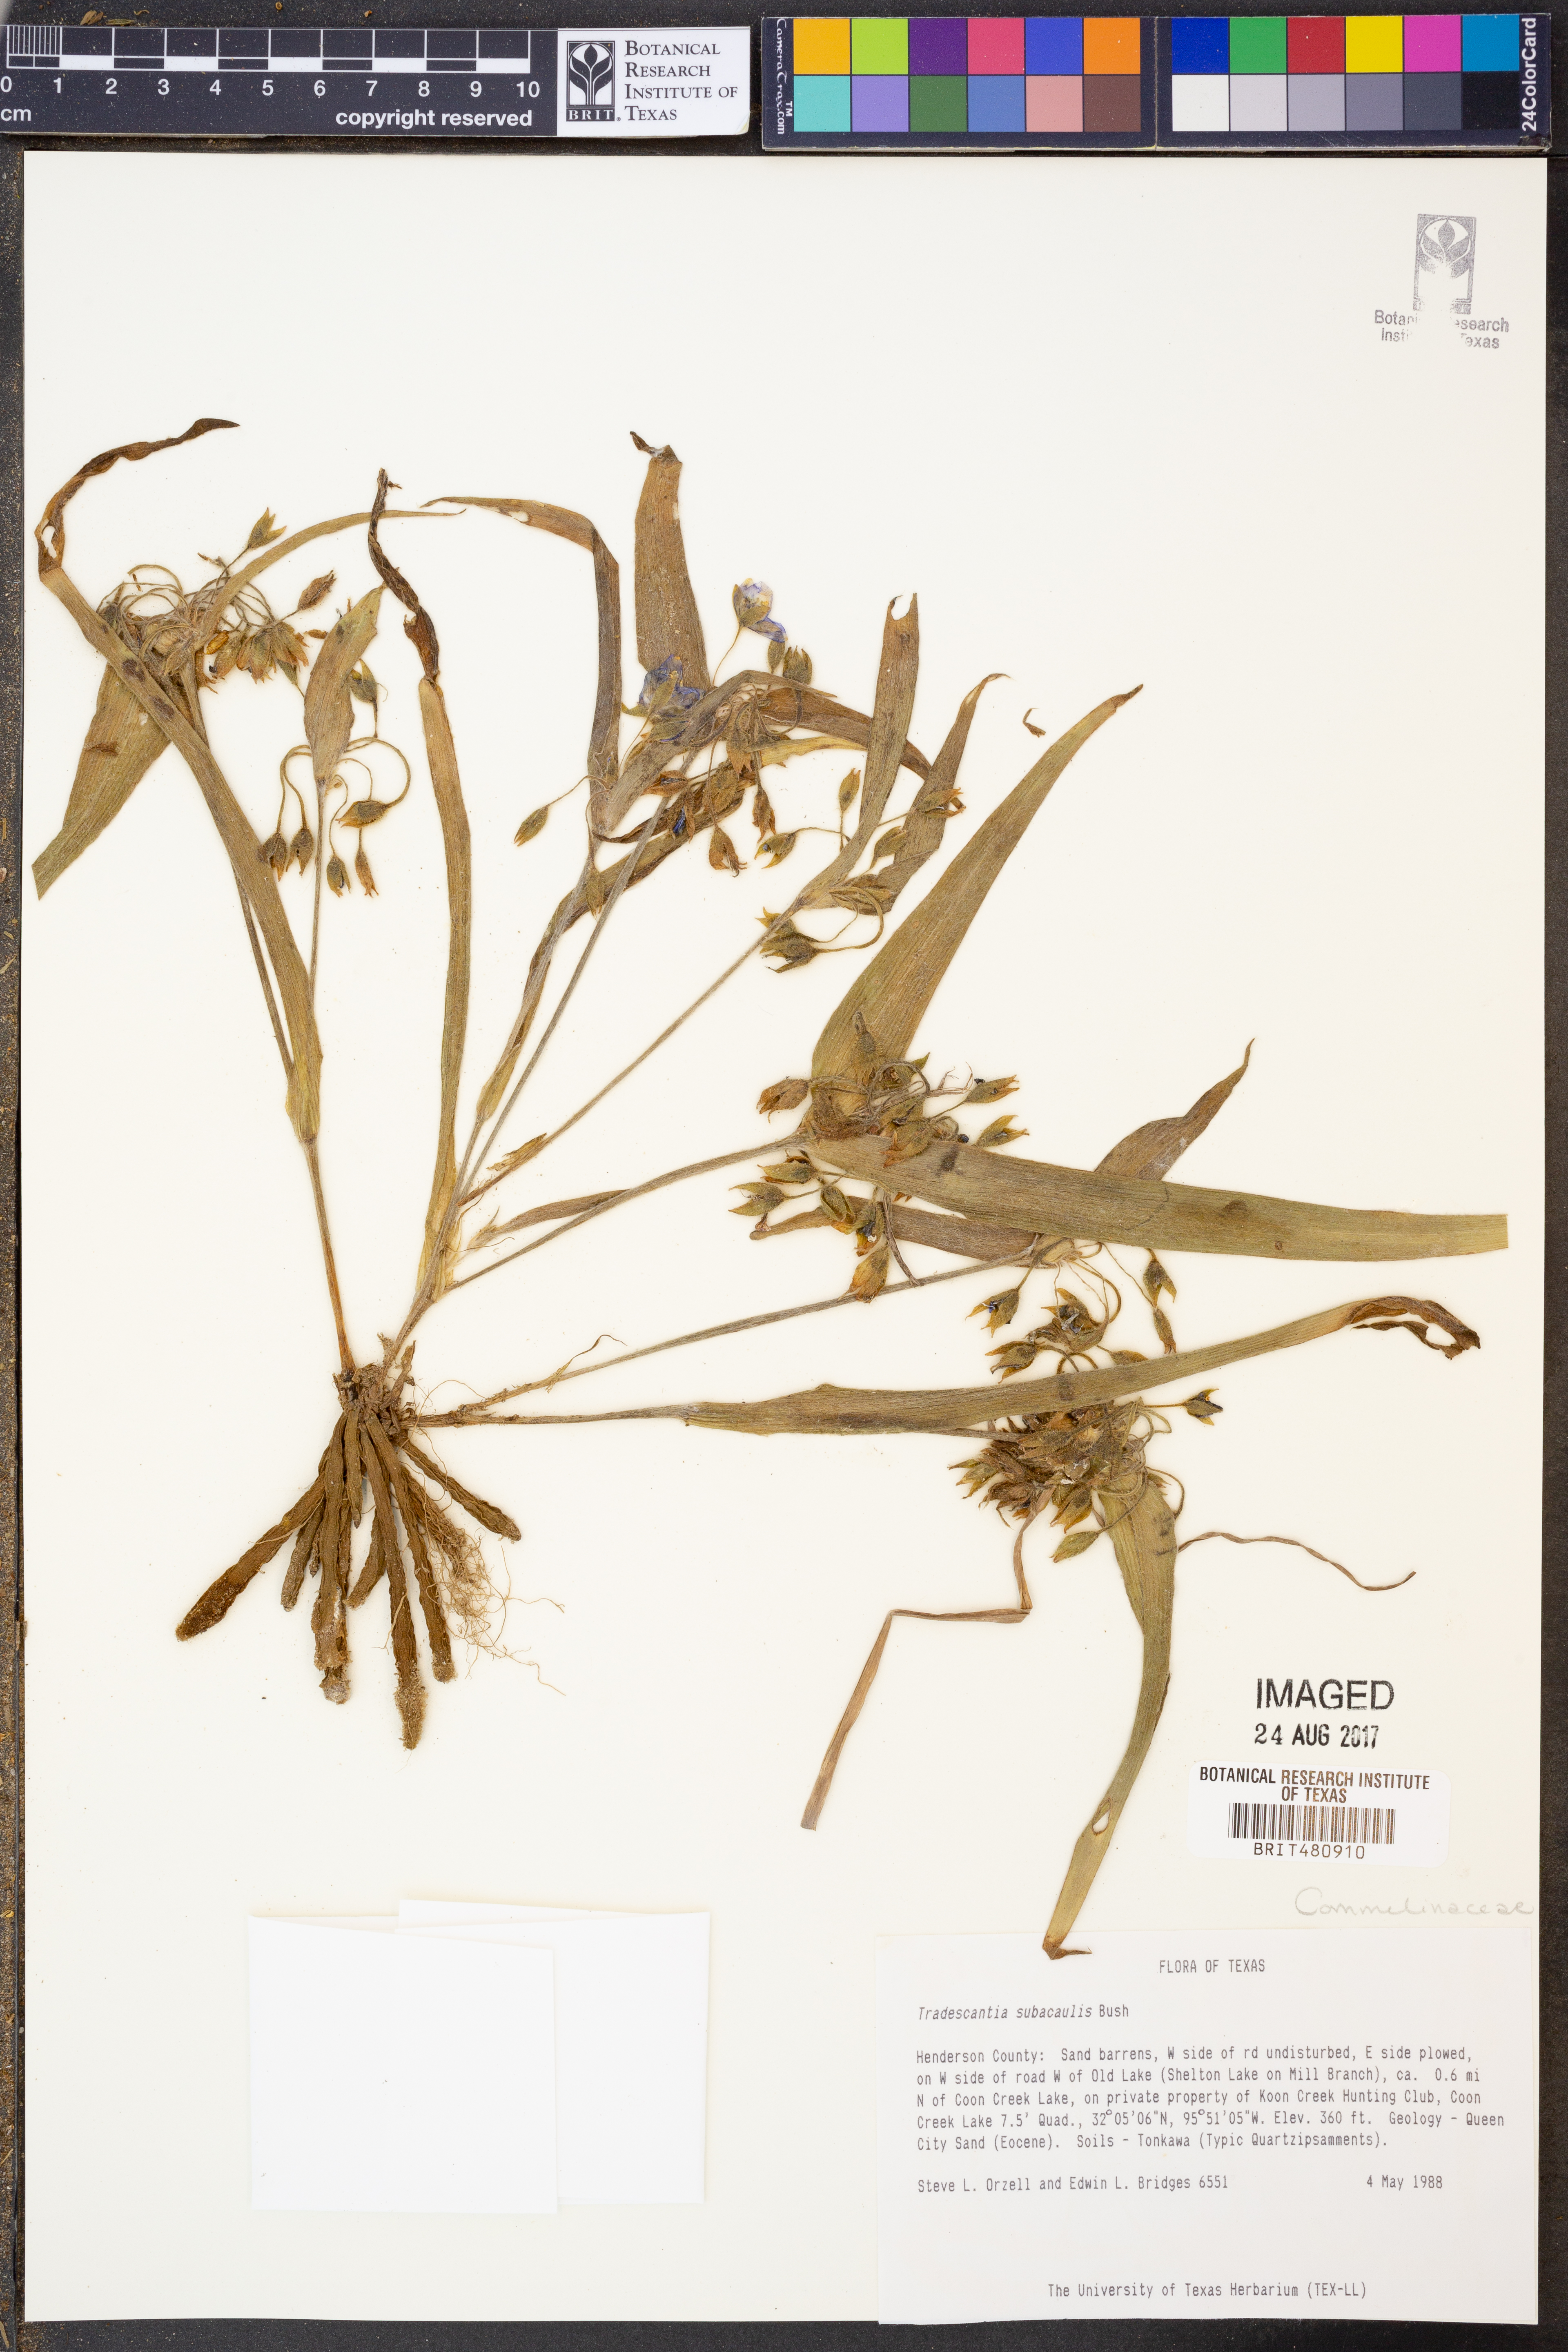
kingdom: Plantae
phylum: Tracheophyta
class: Liliopsida
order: Commelinales
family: Commelinaceae
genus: Tradescantia
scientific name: Tradescantia subacaulis
